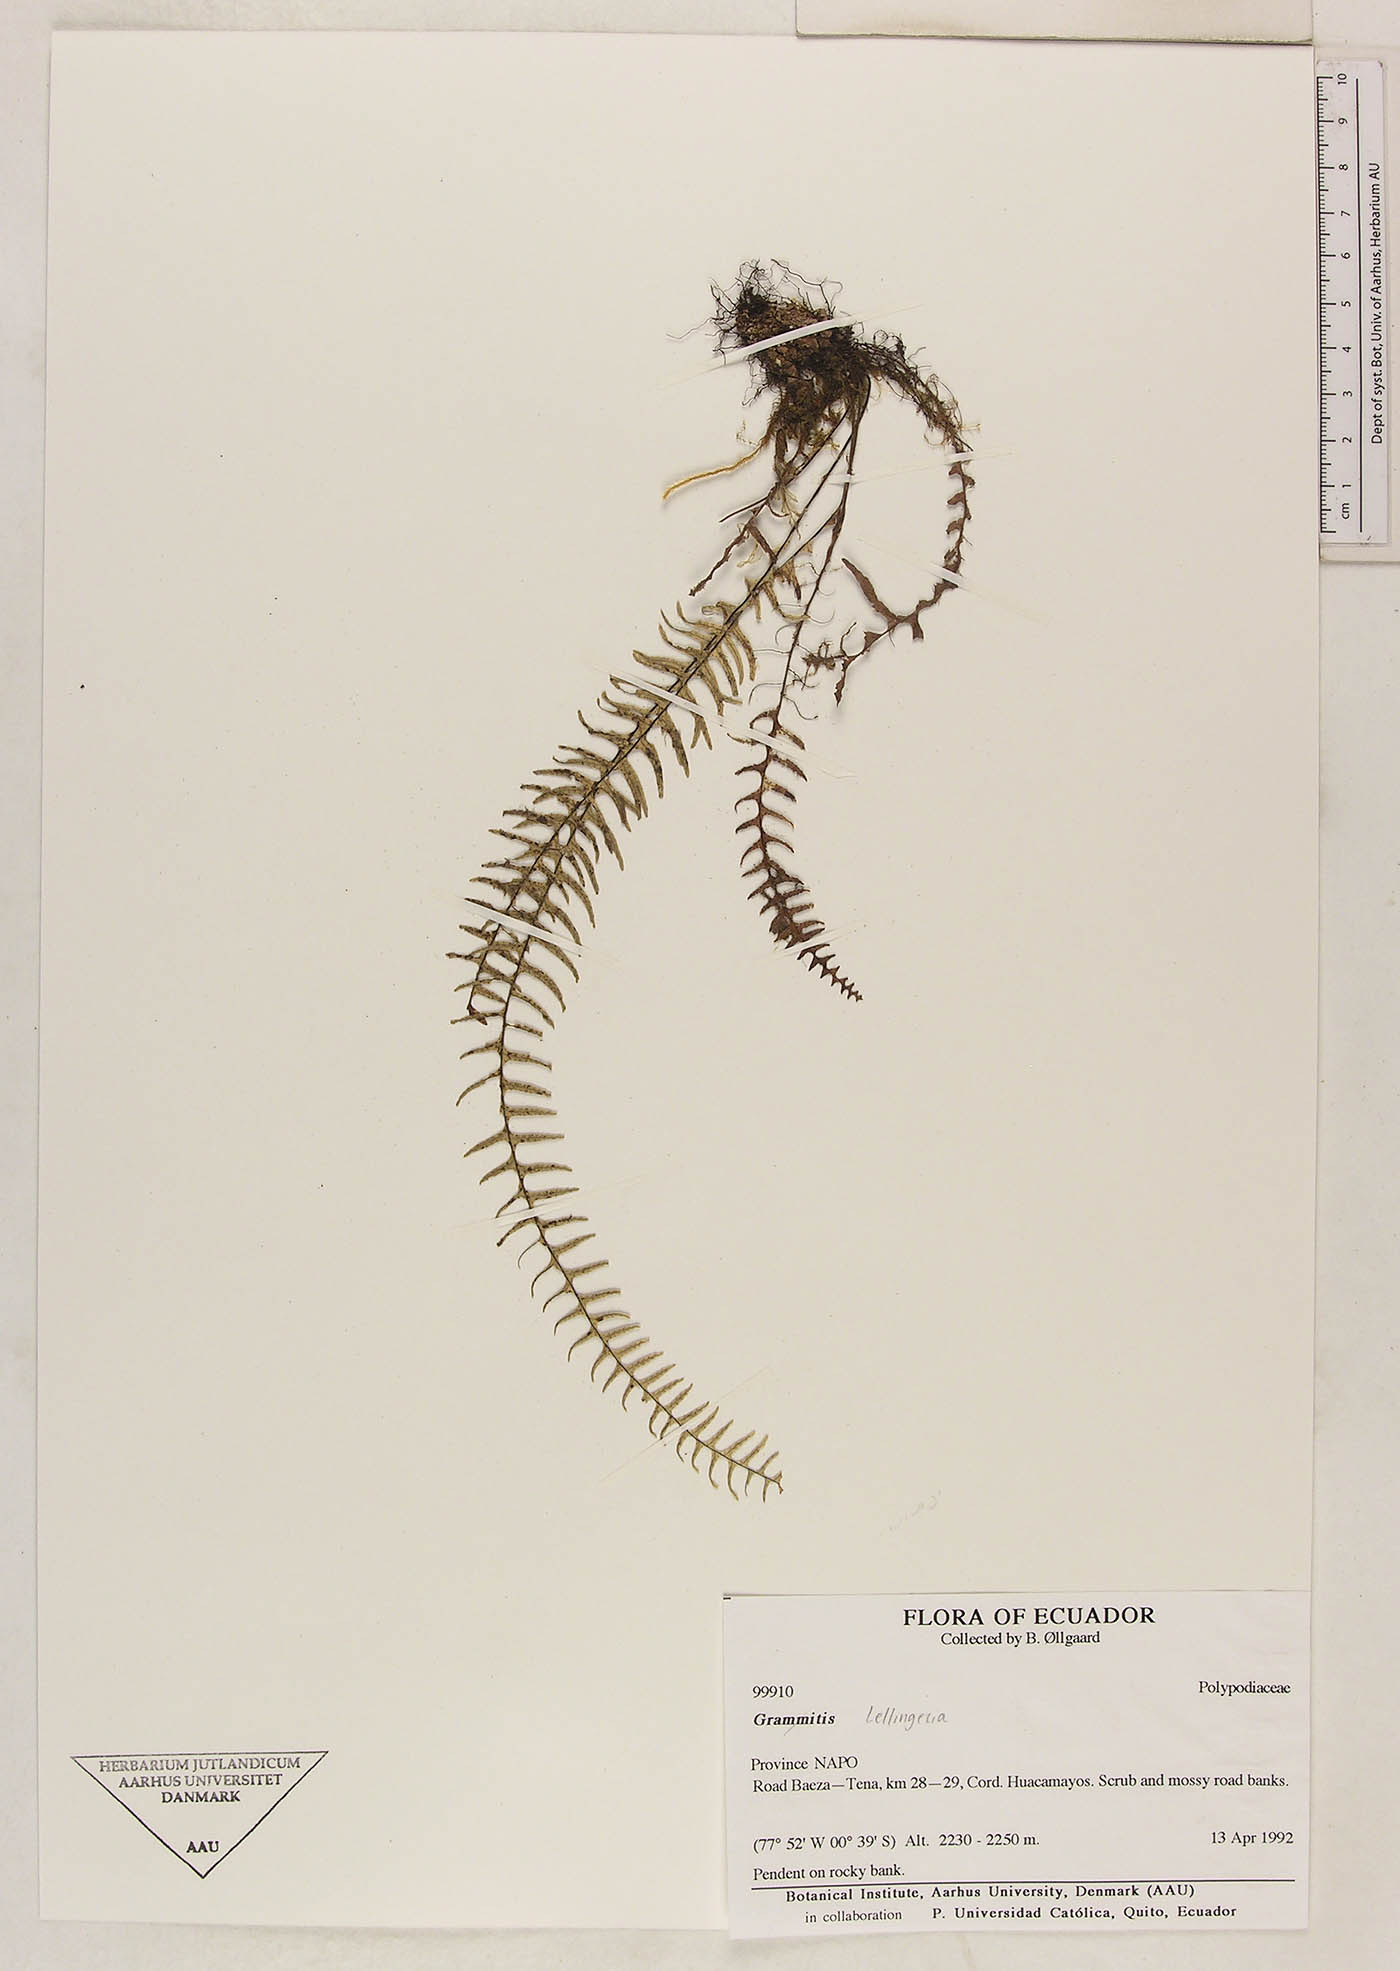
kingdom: Plantae
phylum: Tracheophyta
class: Polypodiopsida
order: Polypodiales
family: Polypodiaceae
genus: Lellingeria
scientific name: Lellingeria bishopii
